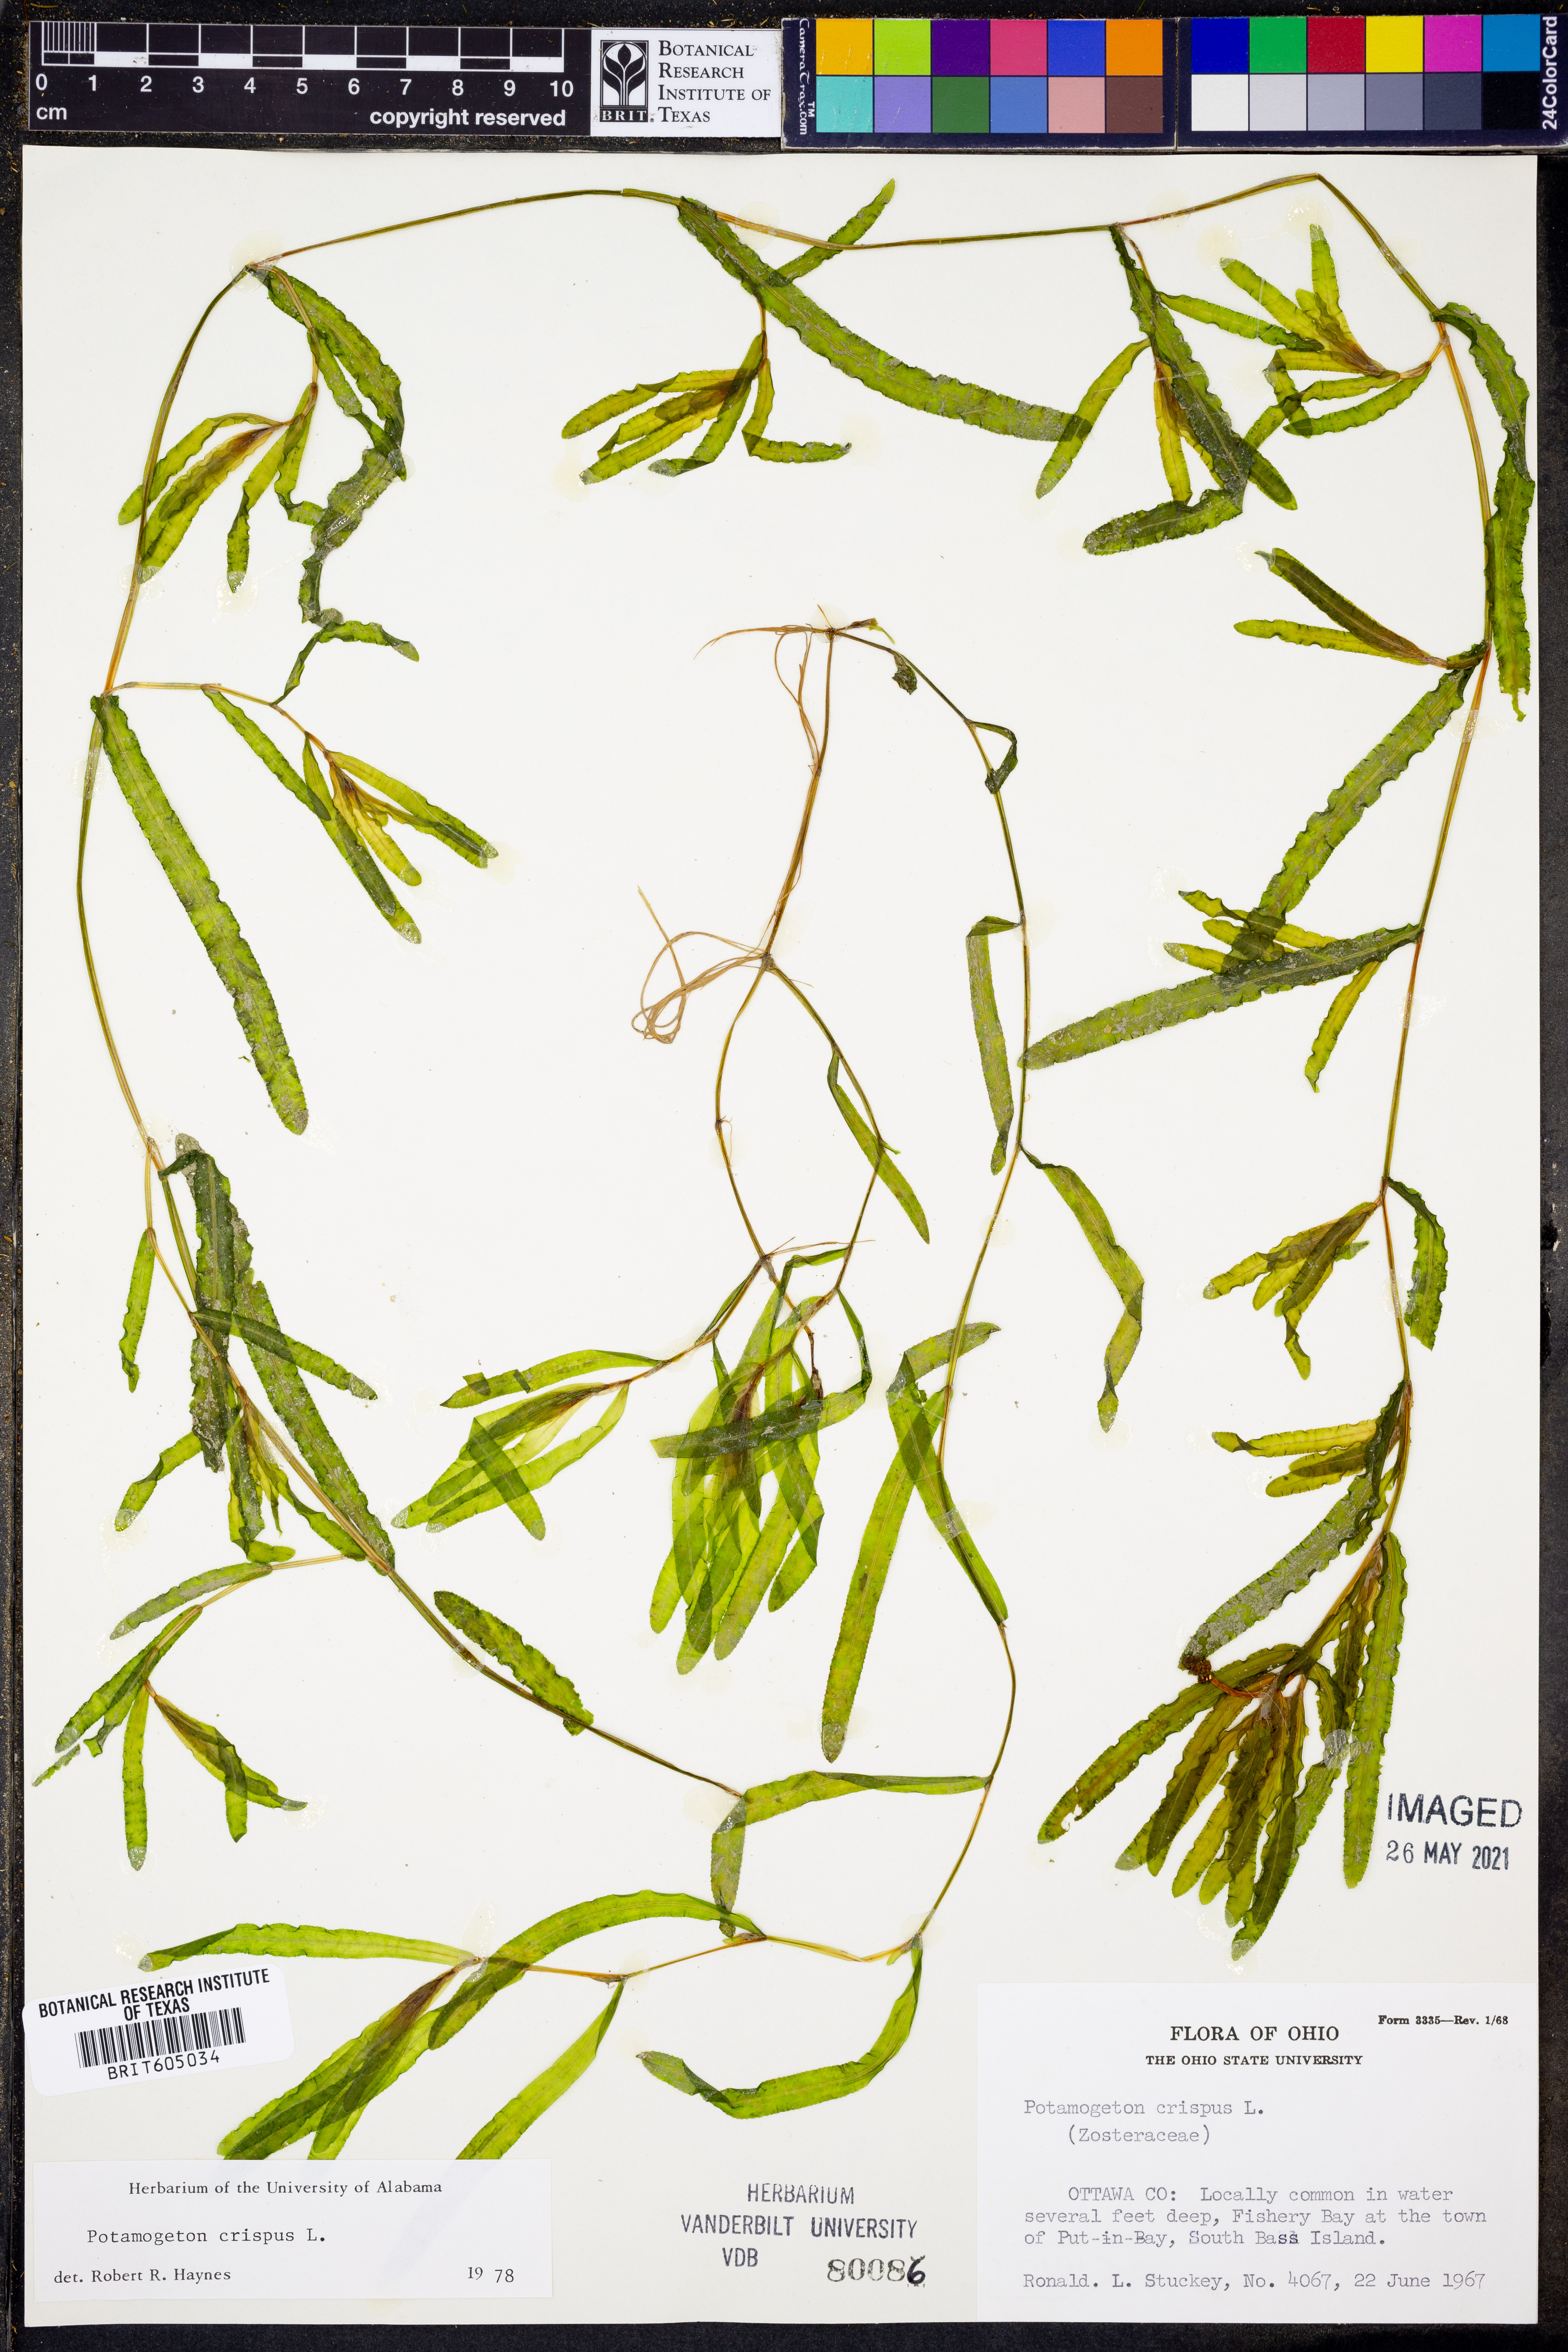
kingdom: Plantae
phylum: Tracheophyta
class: Liliopsida
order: Alismatales
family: Potamogetonaceae
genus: Potamogeton
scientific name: Potamogeton crispus
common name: Curled pondweed
